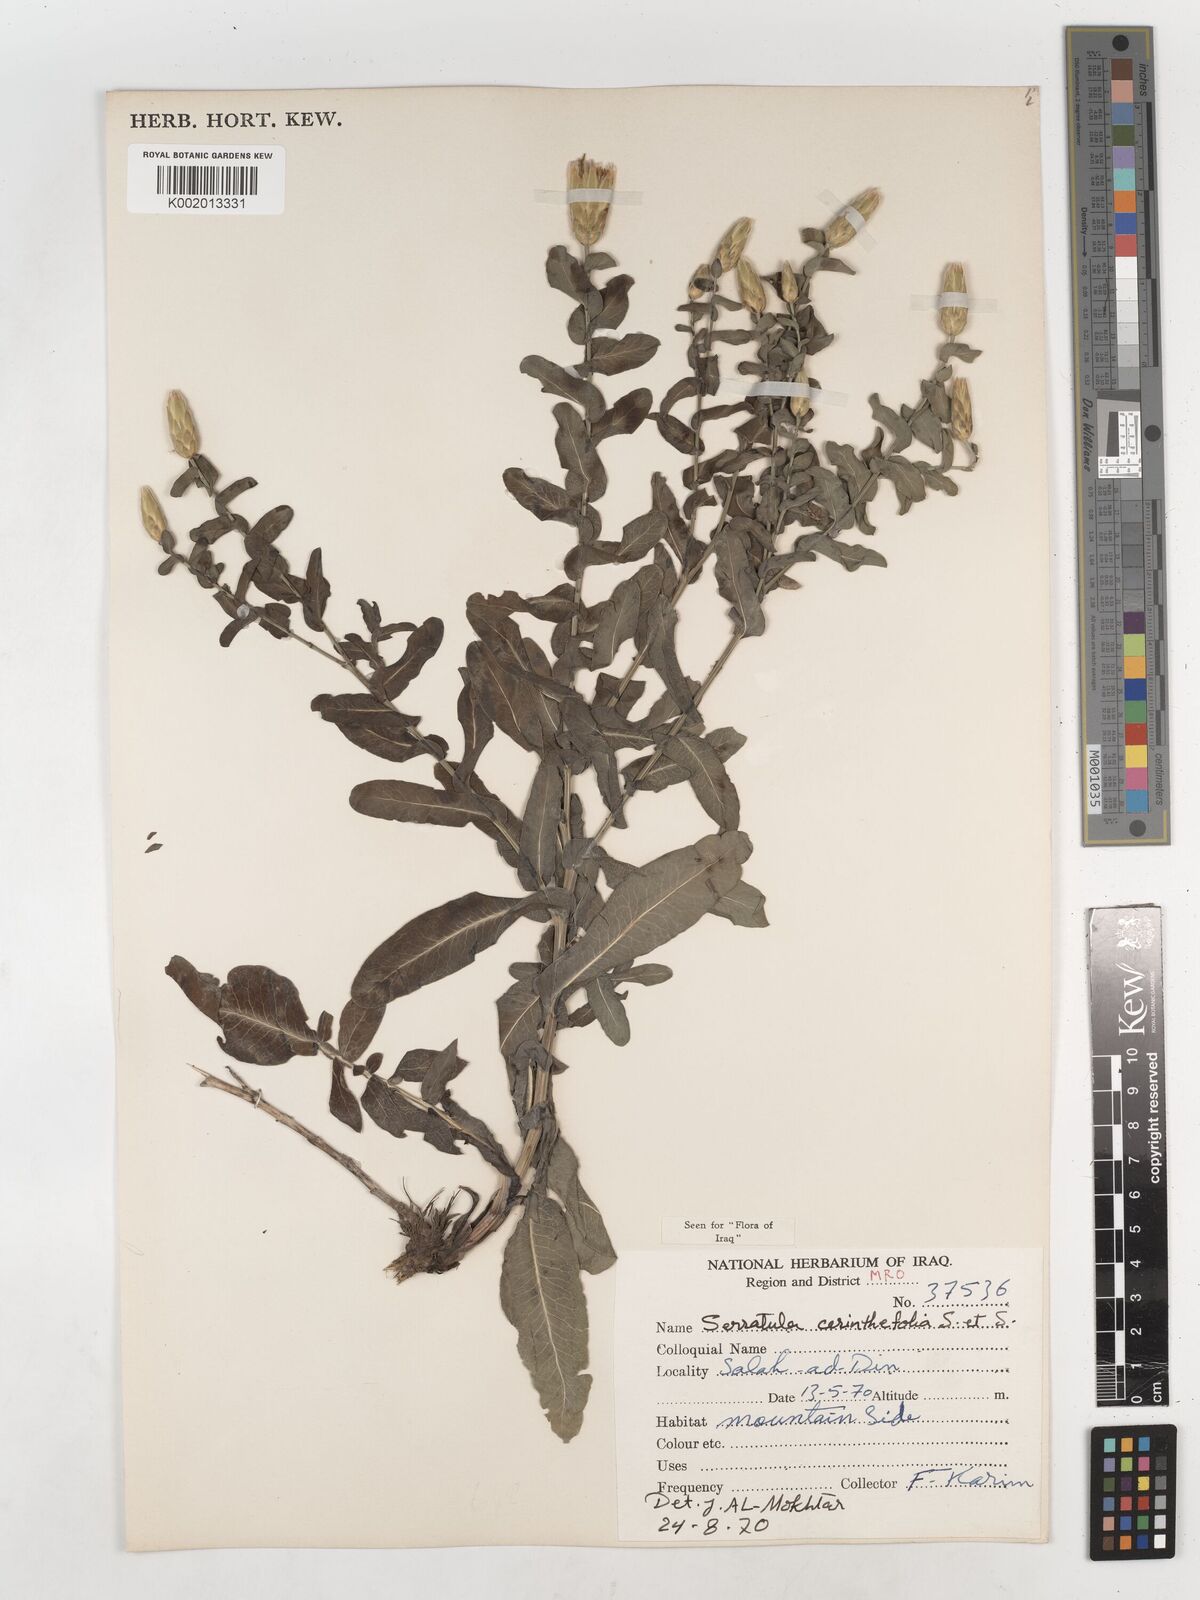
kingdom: Plantae
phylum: Tracheophyta
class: Magnoliopsida
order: Asterales
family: Asteraceae
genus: Klasea
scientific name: Klasea cerinthifolia
